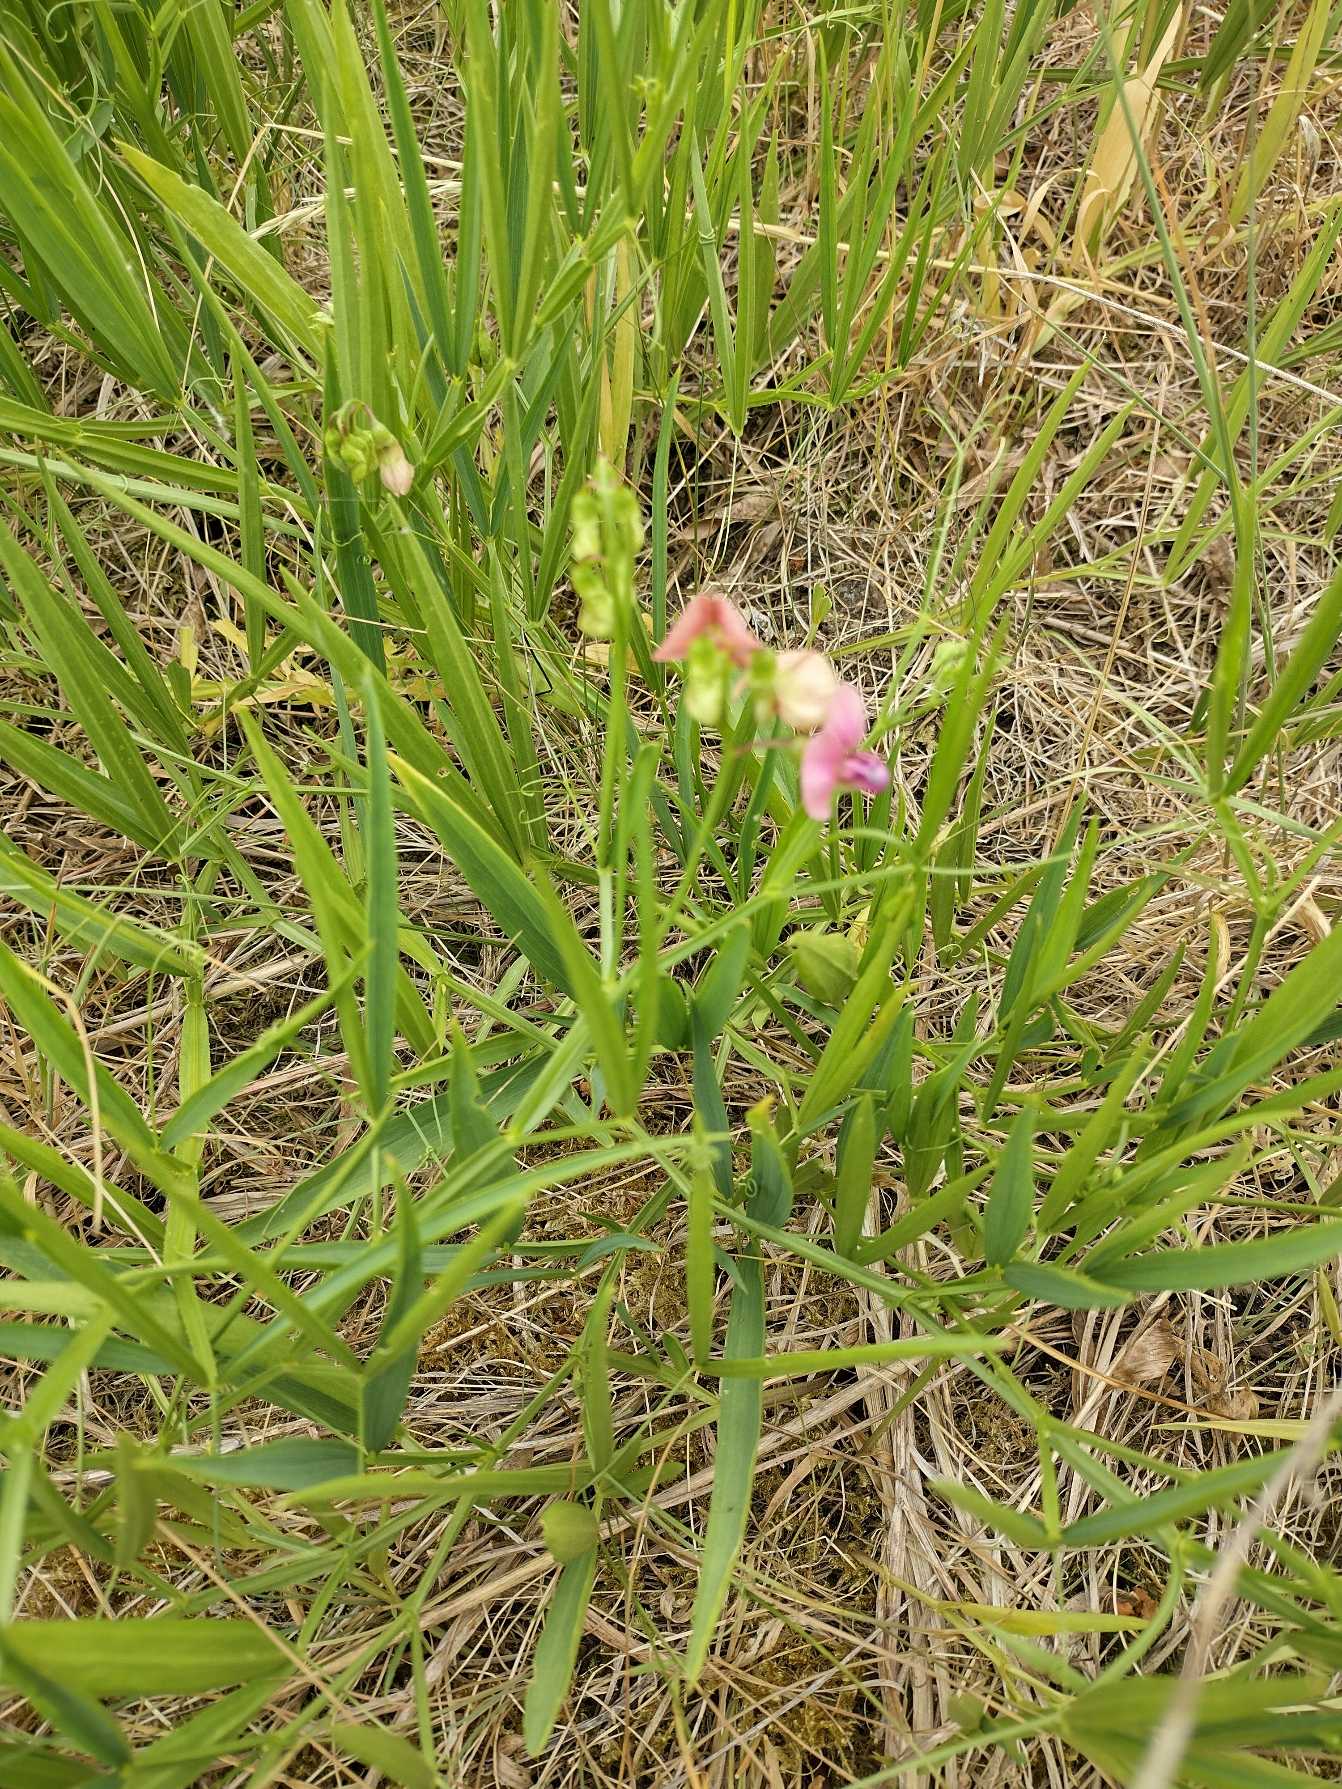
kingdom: Plantae
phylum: Tracheophyta
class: Magnoliopsida
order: Fabales
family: Fabaceae
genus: Lathyrus
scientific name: Lathyrus sylvestris
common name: Skov-fladbælg
